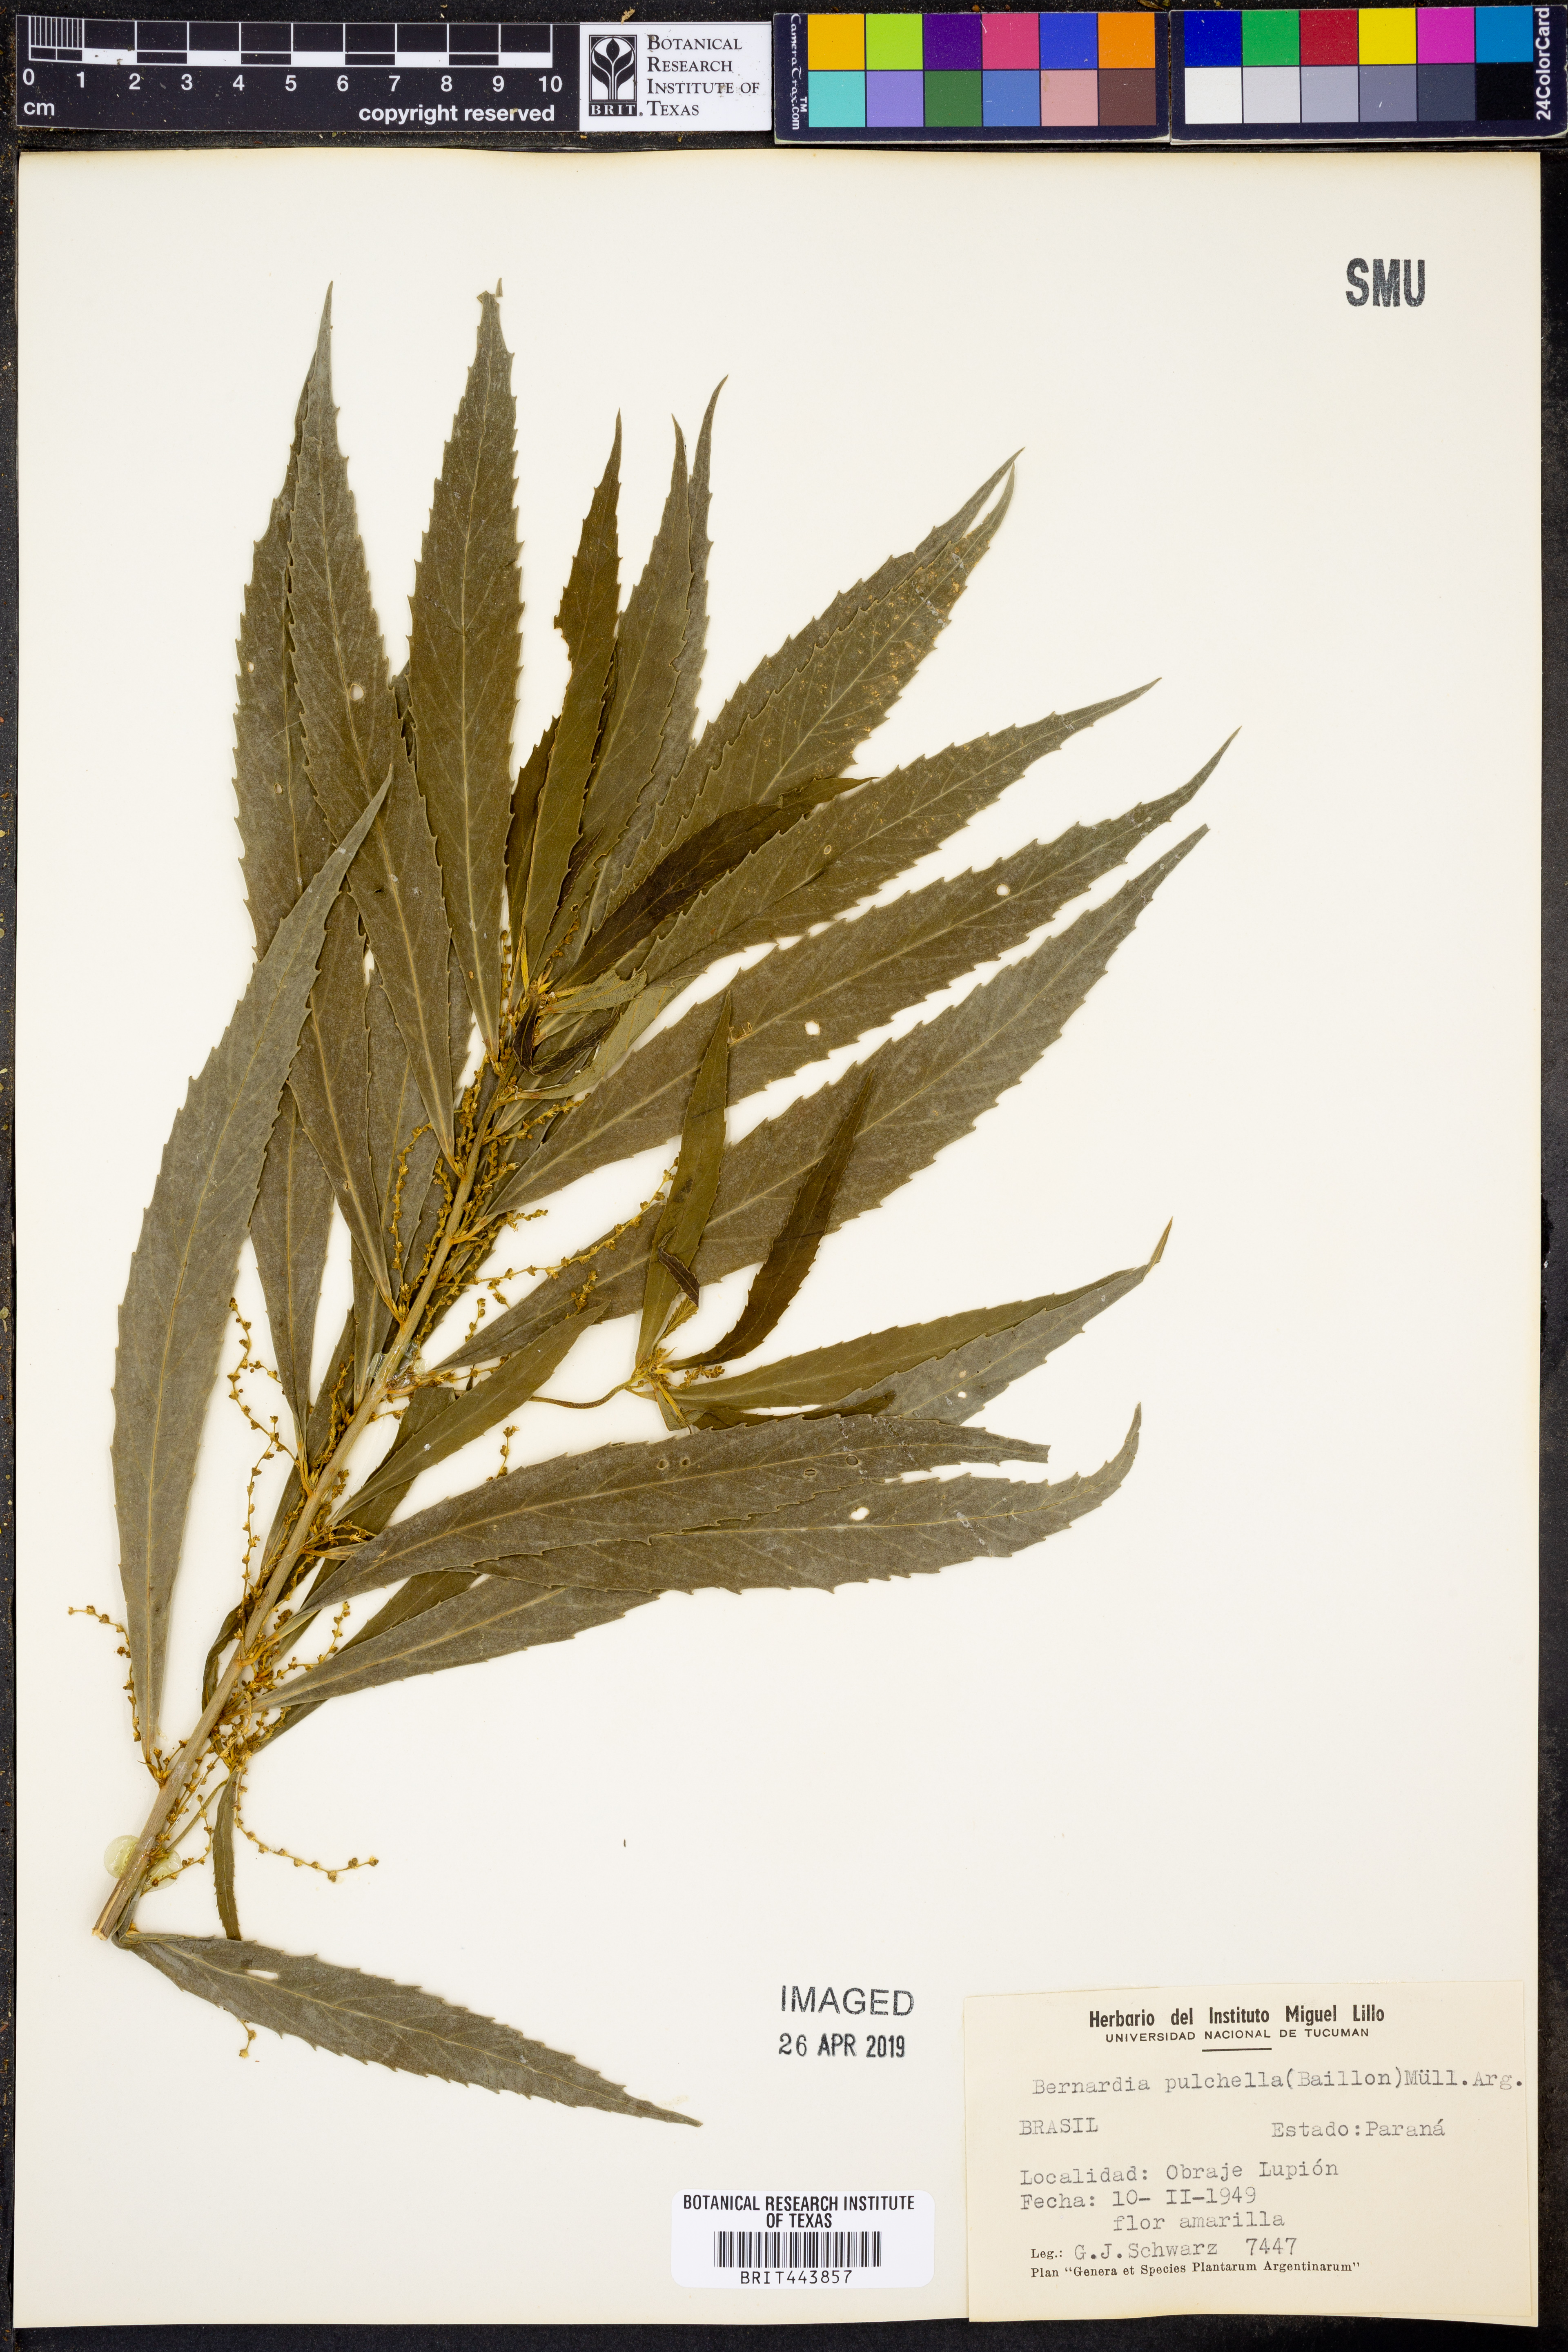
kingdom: Plantae
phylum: Tracheophyta
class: Magnoliopsida
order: Malpighiales
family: Euphorbiaceae
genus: Bernardia
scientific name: Bernardia pulchella
